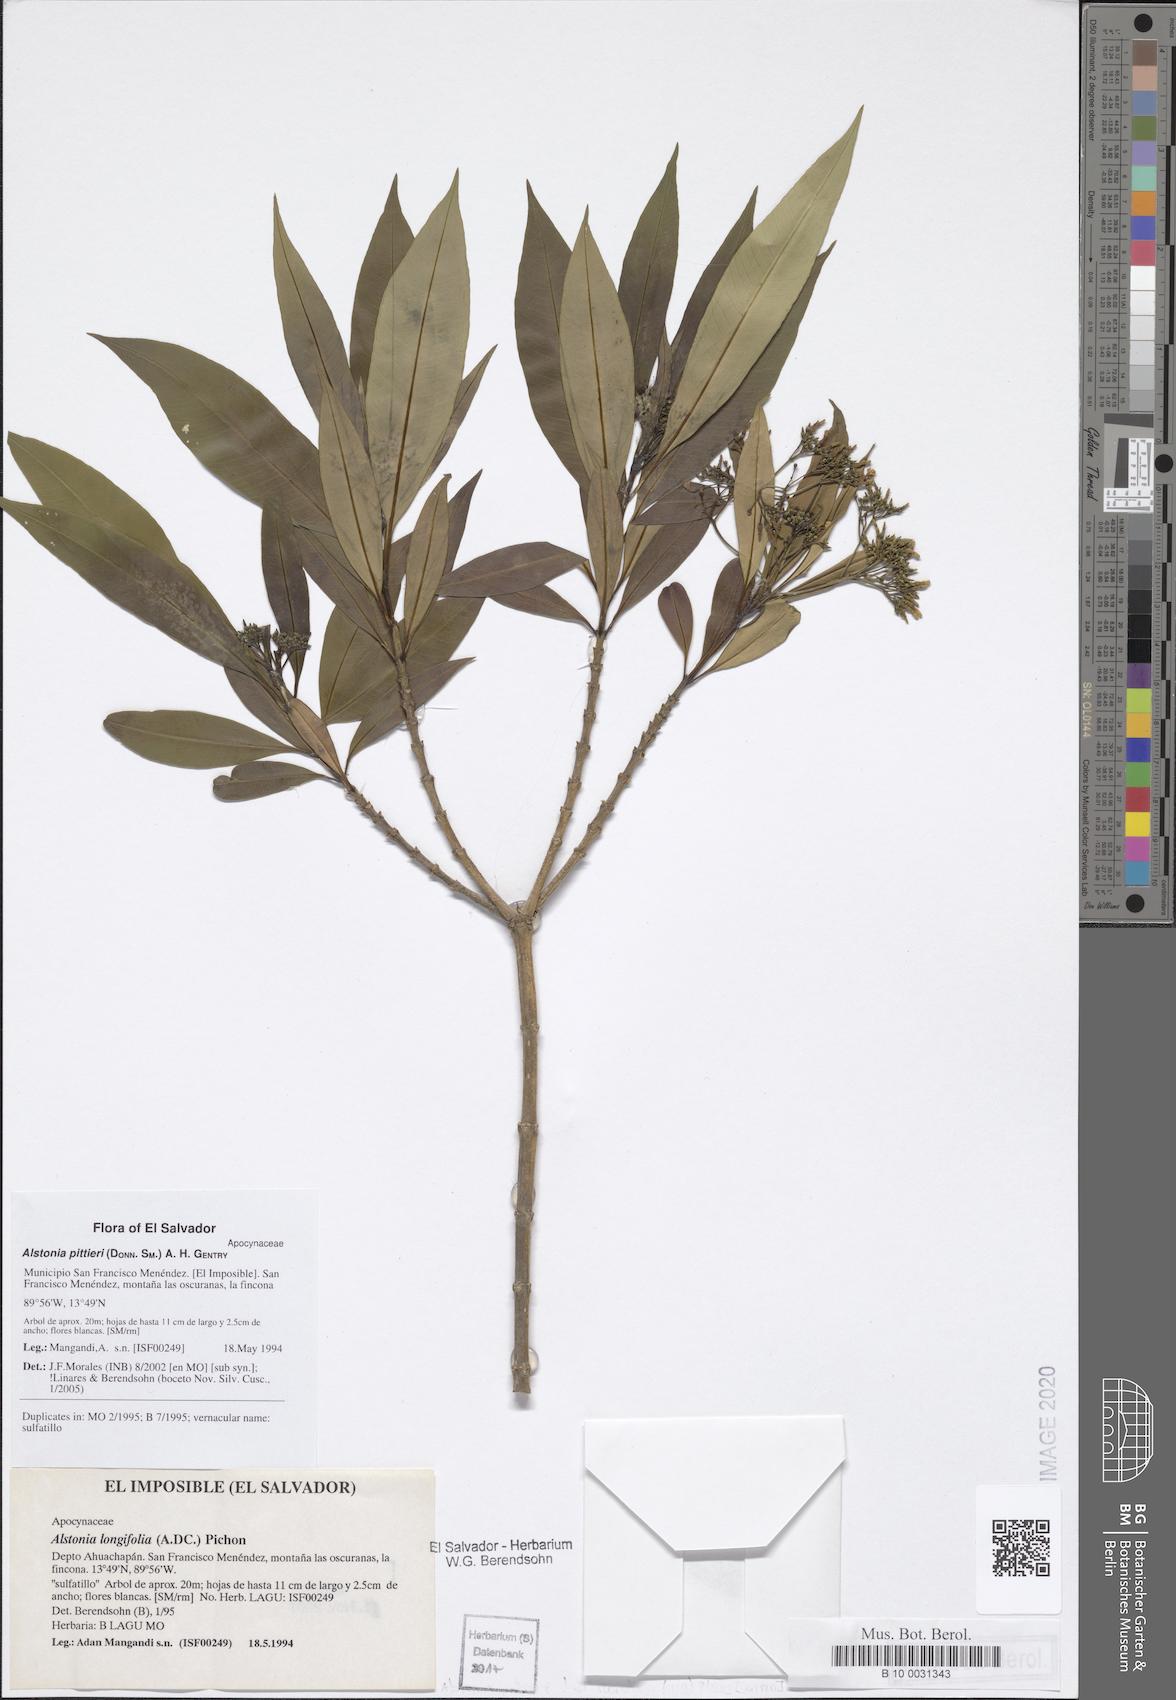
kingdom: Plantae
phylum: Tracheophyta
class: Magnoliopsida
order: Gentianales
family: Apocynaceae
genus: Tonduzia
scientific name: Tonduzia longifolia
